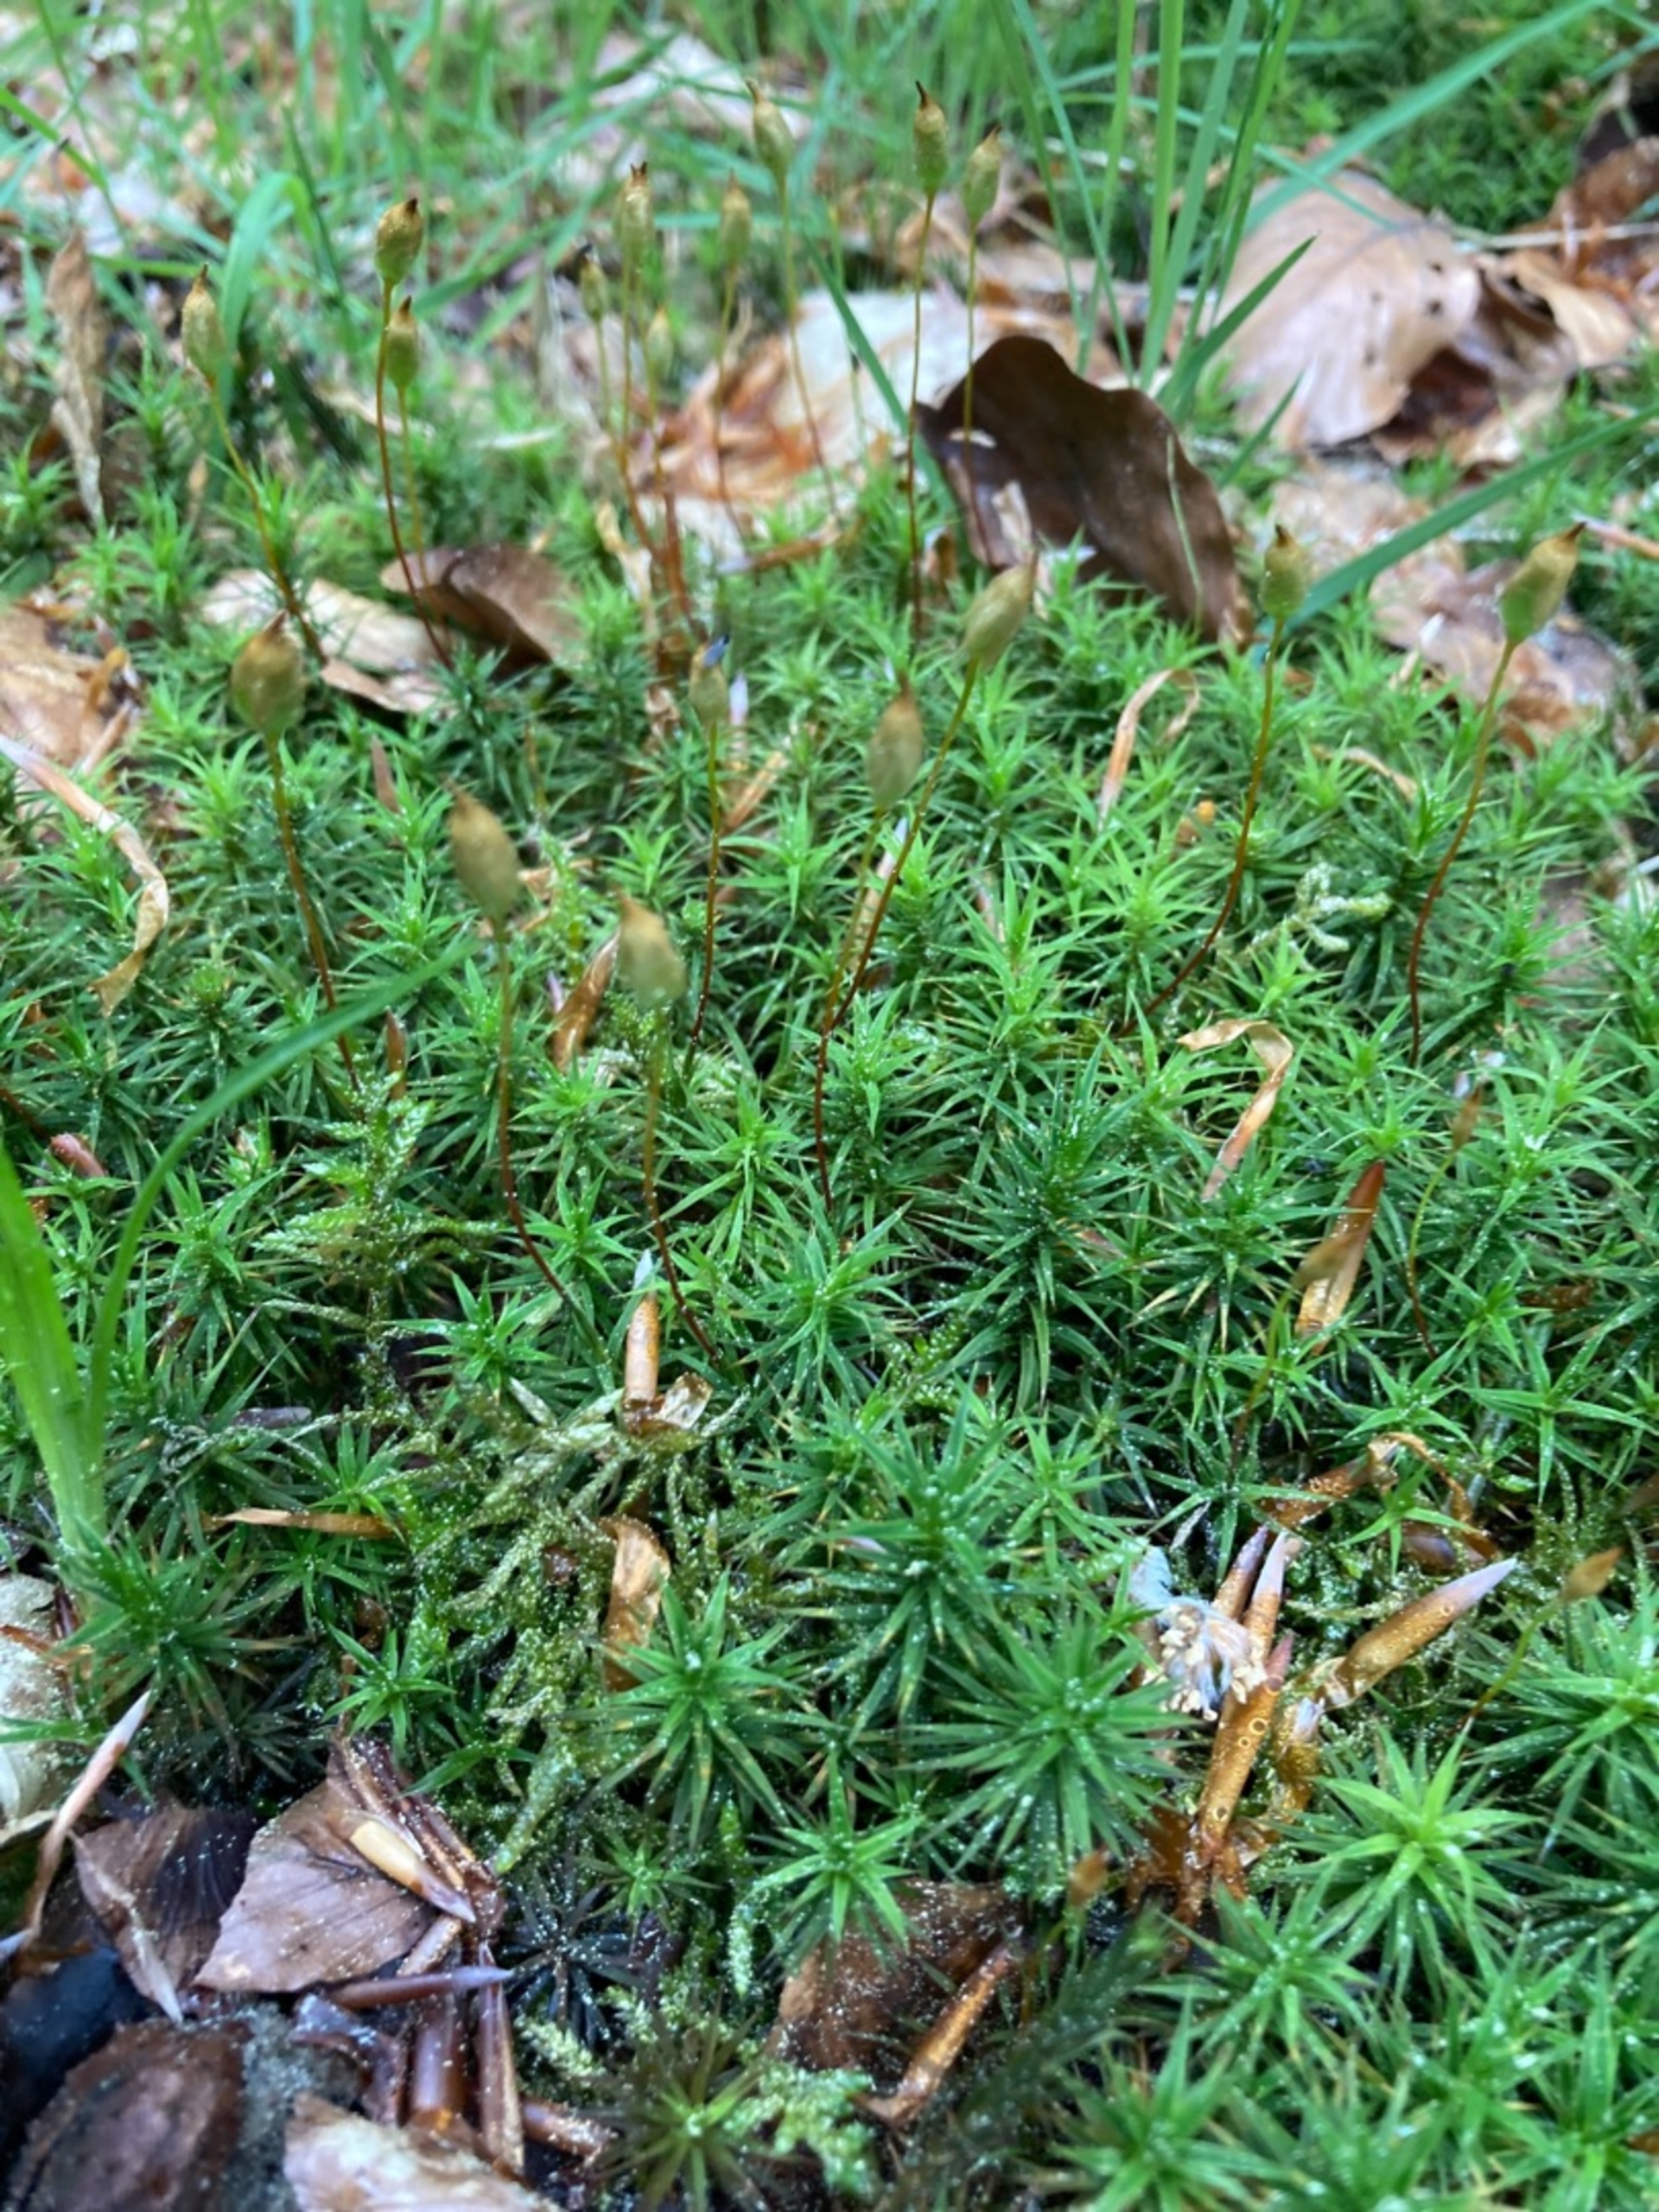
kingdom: Plantae
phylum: Bryophyta
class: Polytrichopsida
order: Polytrichales
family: Polytrichaceae
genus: Polytrichum
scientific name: Polytrichum formosum
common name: Skov-jomfruhår
